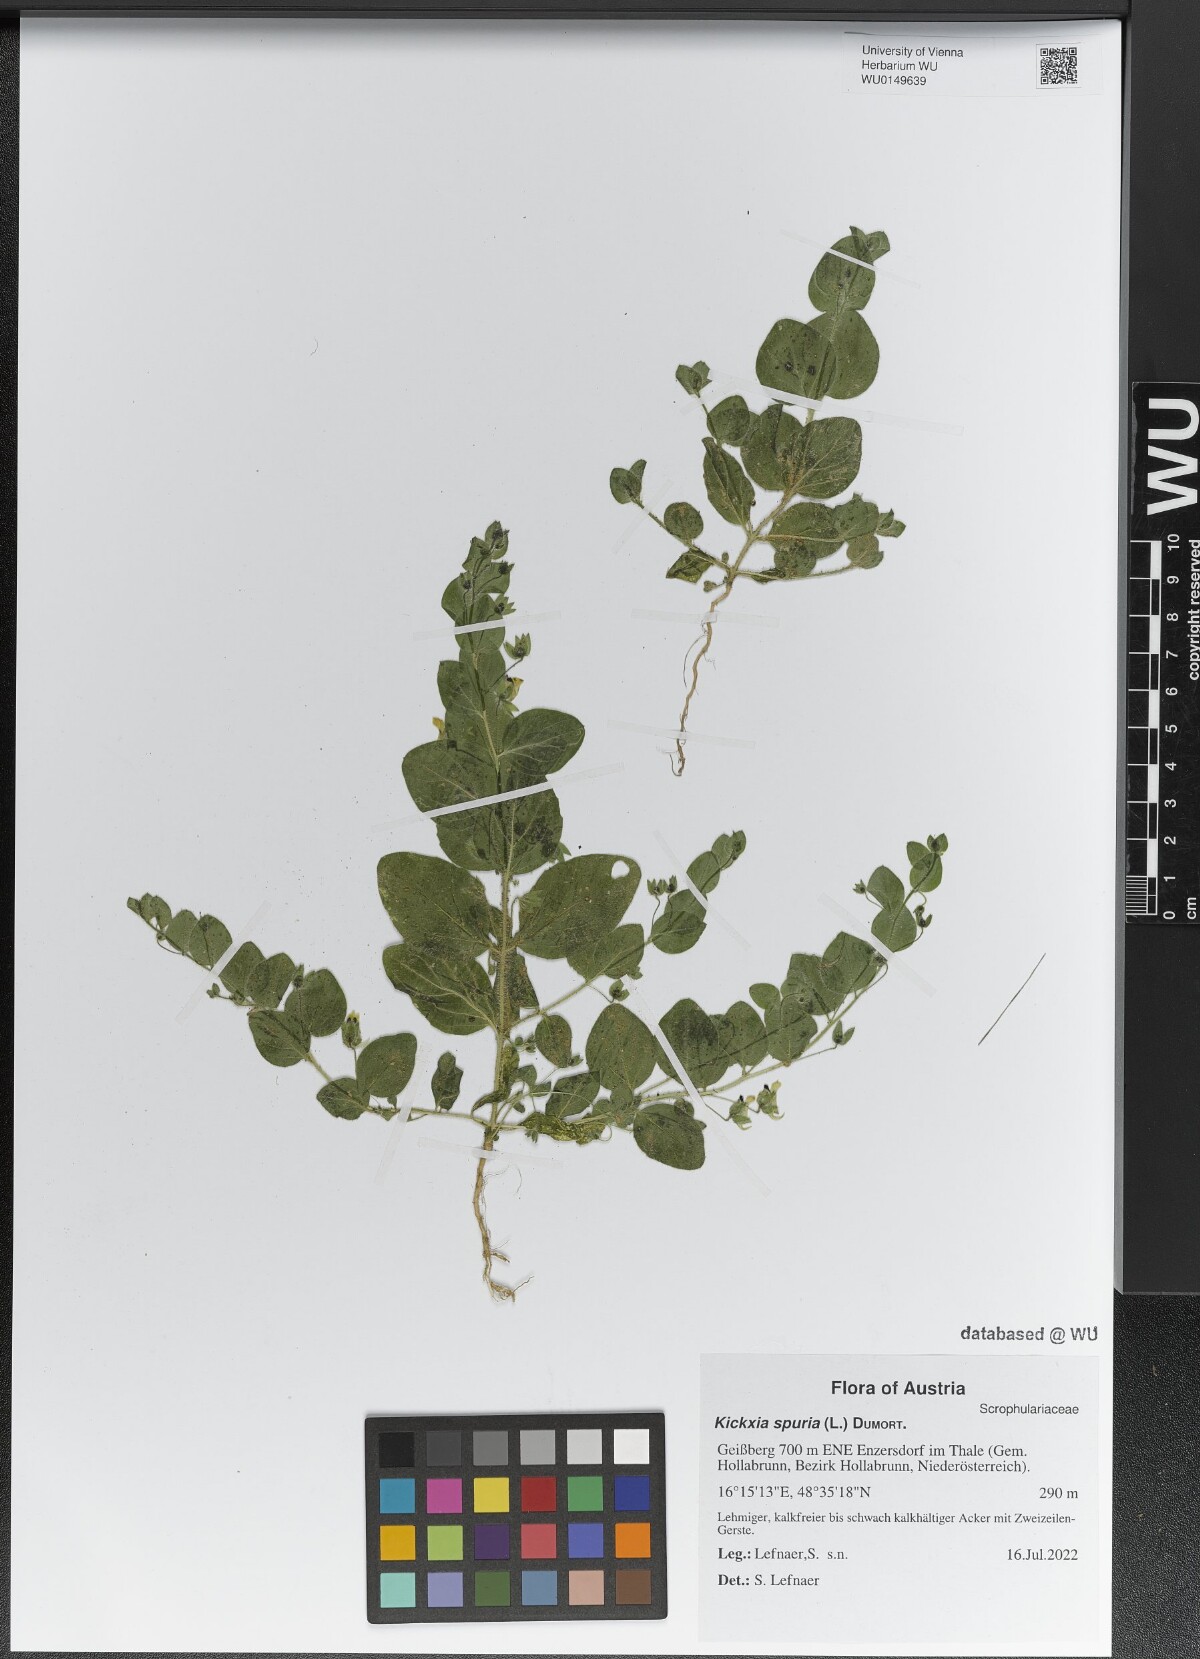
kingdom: Plantae
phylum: Tracheophyta
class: Magnoliopsida
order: Lamiales
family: Plantaginaceae
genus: Kickxia
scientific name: Kickxia spuria
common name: Round-leaved fluellen
